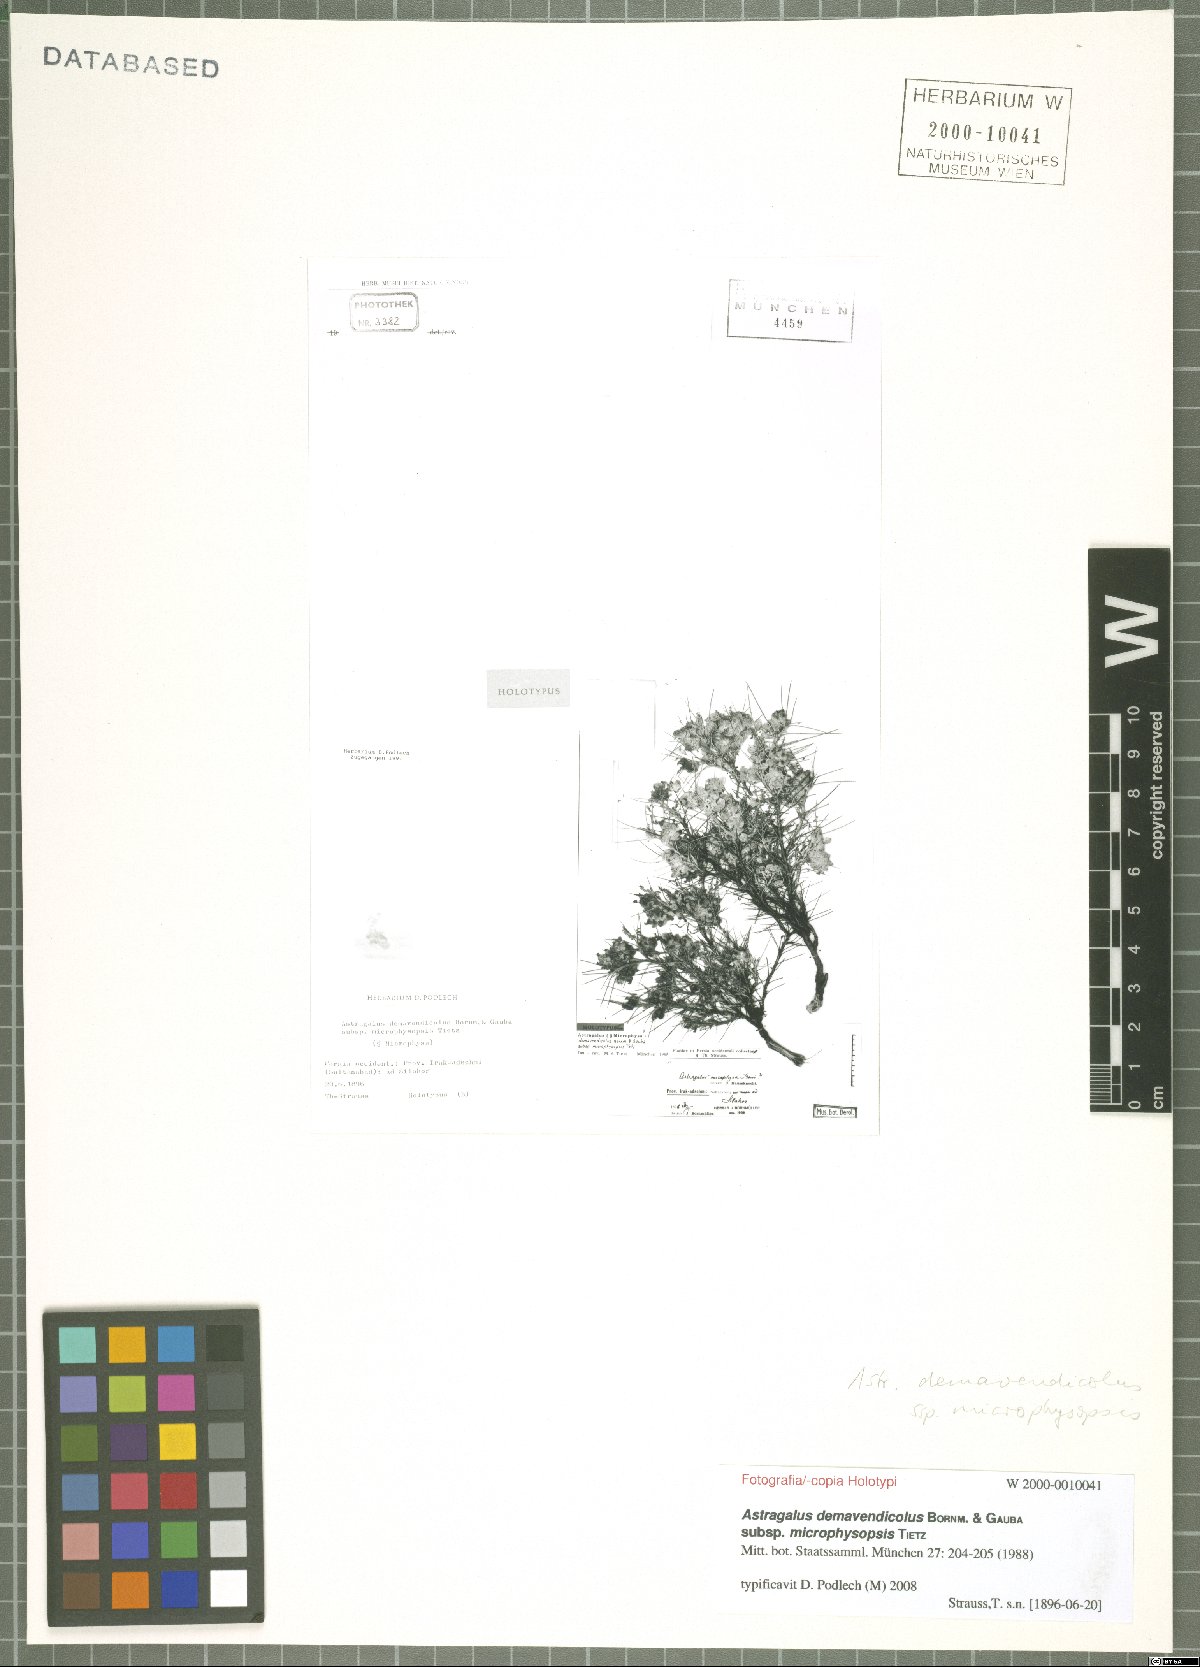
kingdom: Plantae
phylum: Tracheophyta
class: Magnoliopsida
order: Fabales
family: Fabaceae
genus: Astragalus
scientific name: Astragalus microphysopsis
